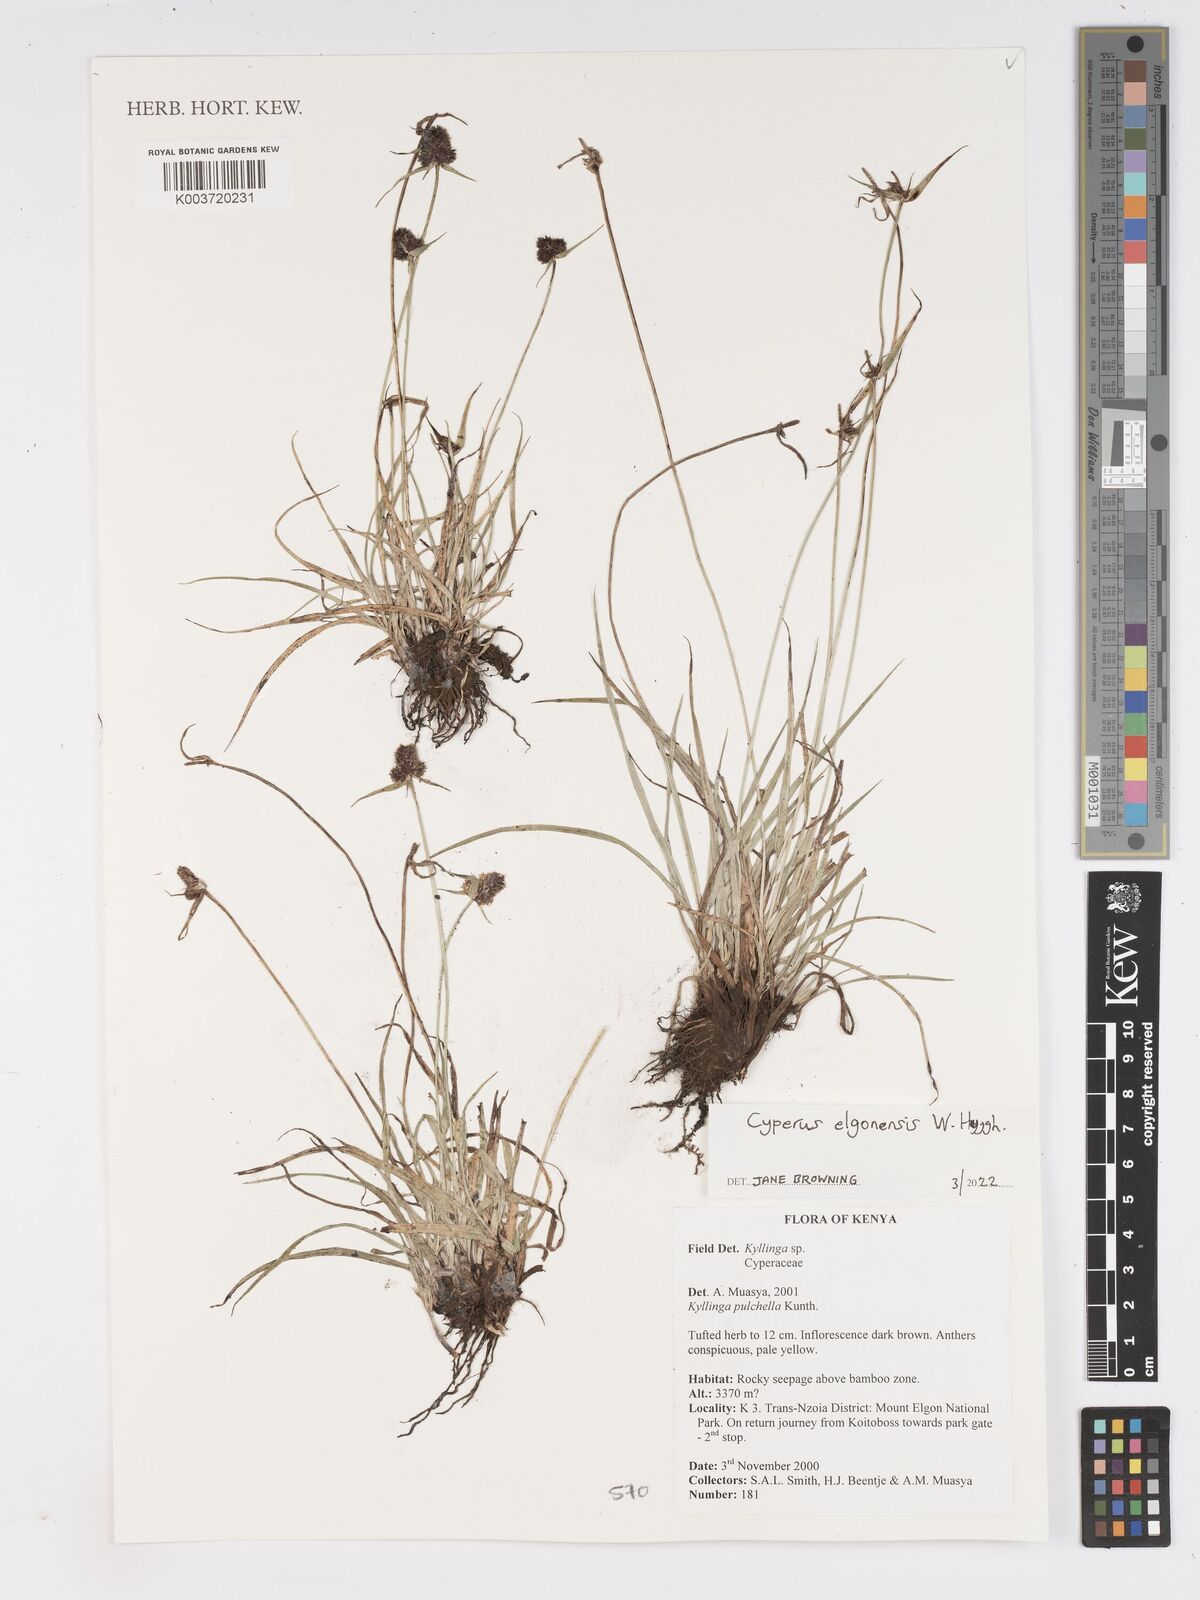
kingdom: Plantae
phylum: Tracheophyta
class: Liliopsida
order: Poales
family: Cyperaceae
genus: Cyperus
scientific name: Cyperus
